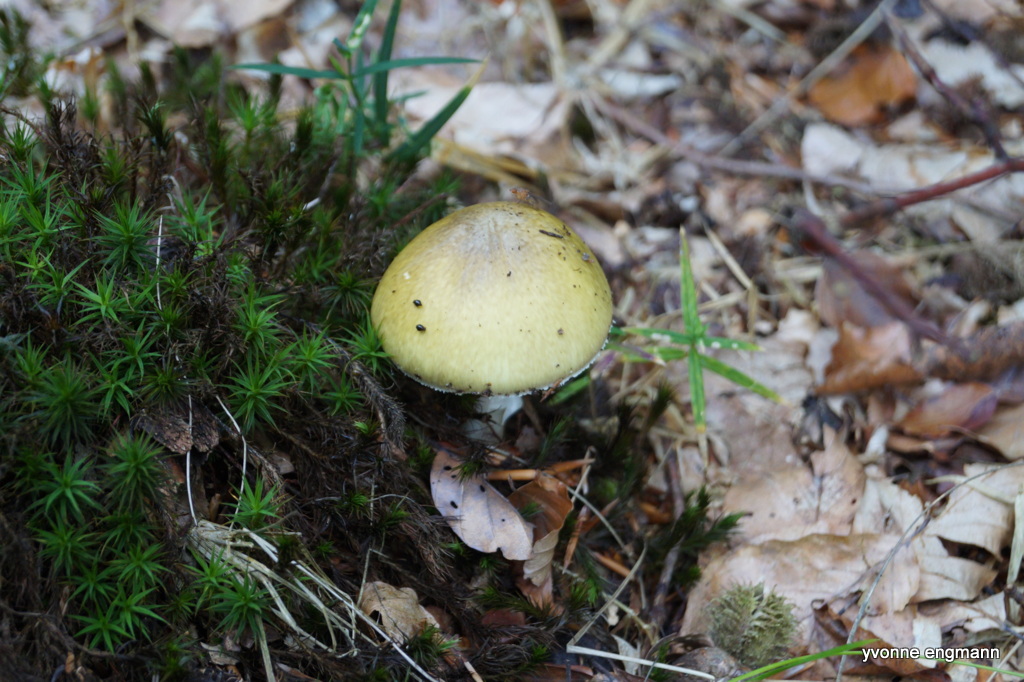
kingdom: Fungi
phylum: Basidiomycota
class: Agaricomycetes
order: Agaricales
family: Amanitaceae
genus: Amanita
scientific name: Amanita phalloides
